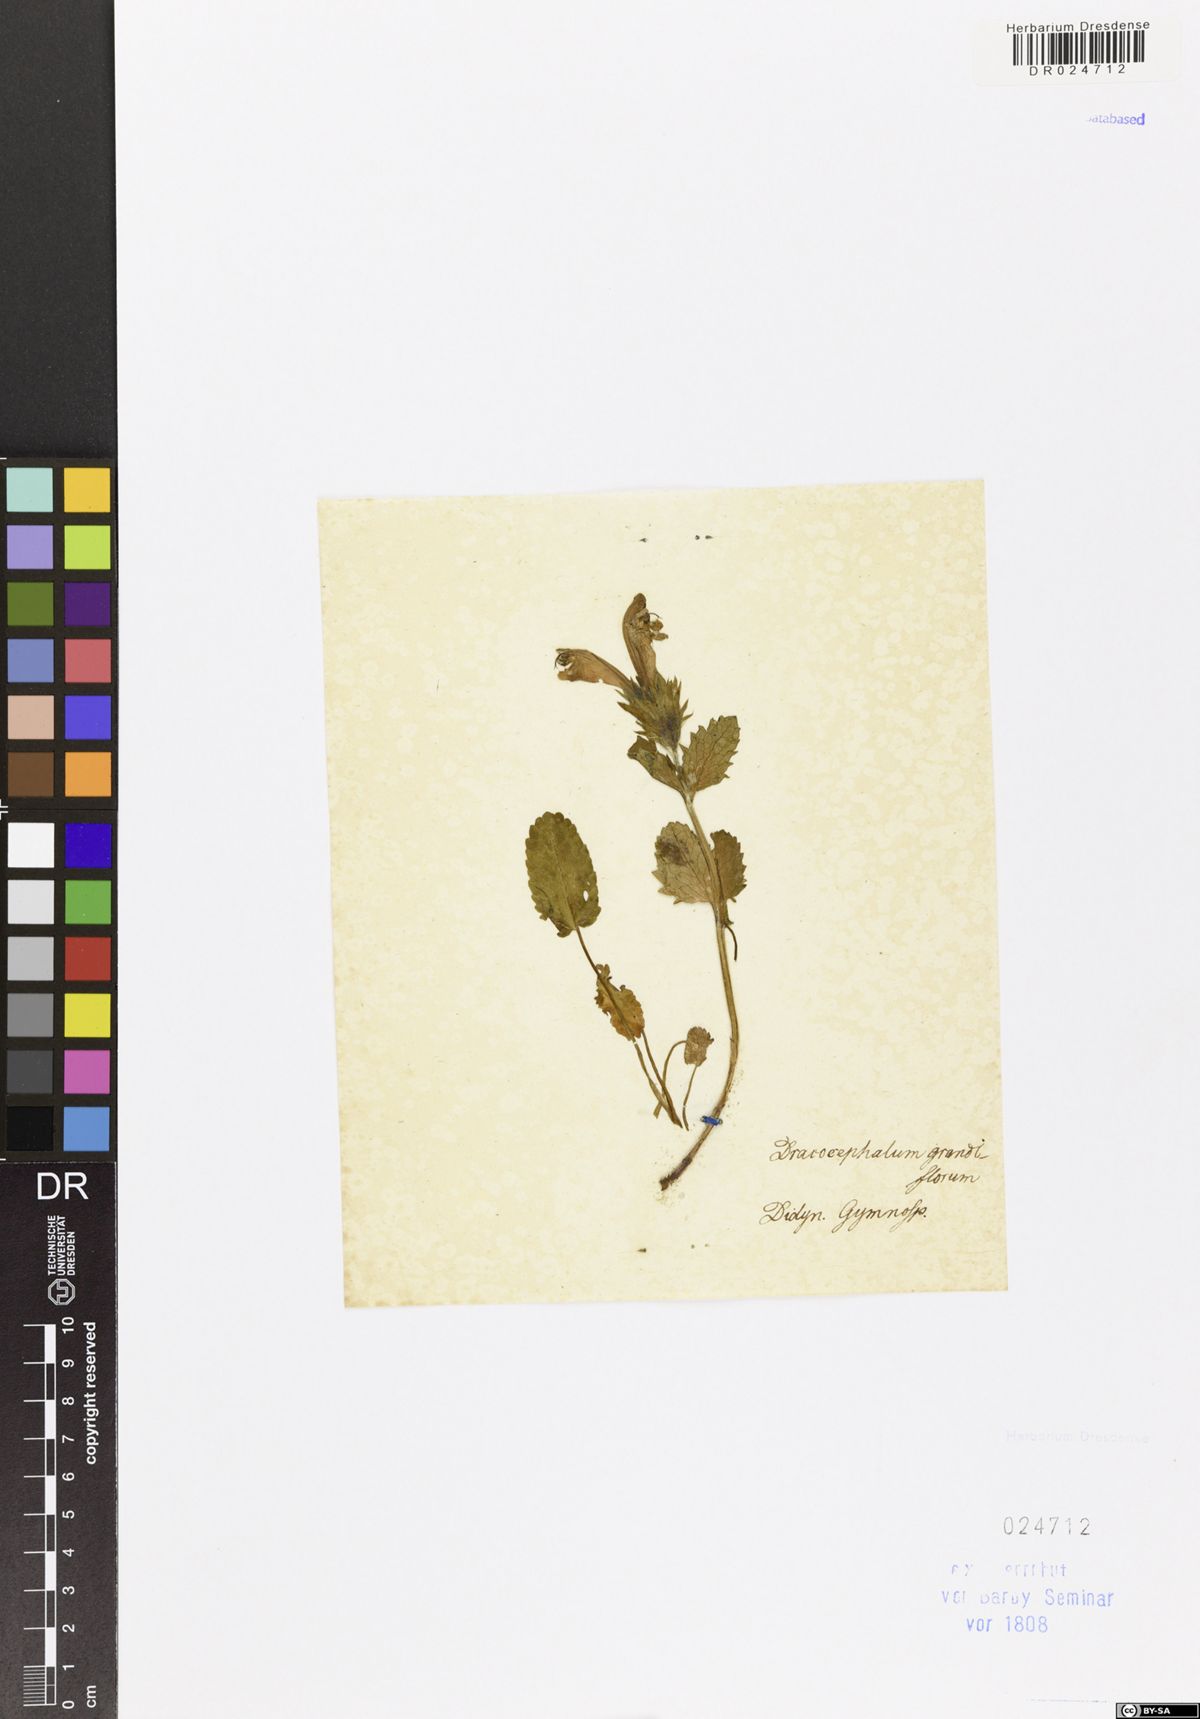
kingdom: Plantae
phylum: Tracheophyta
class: Magnoliopsida
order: Lamiales
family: Lamiaceae
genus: Dracocephalum
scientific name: Dracocephalum grandiflorum
